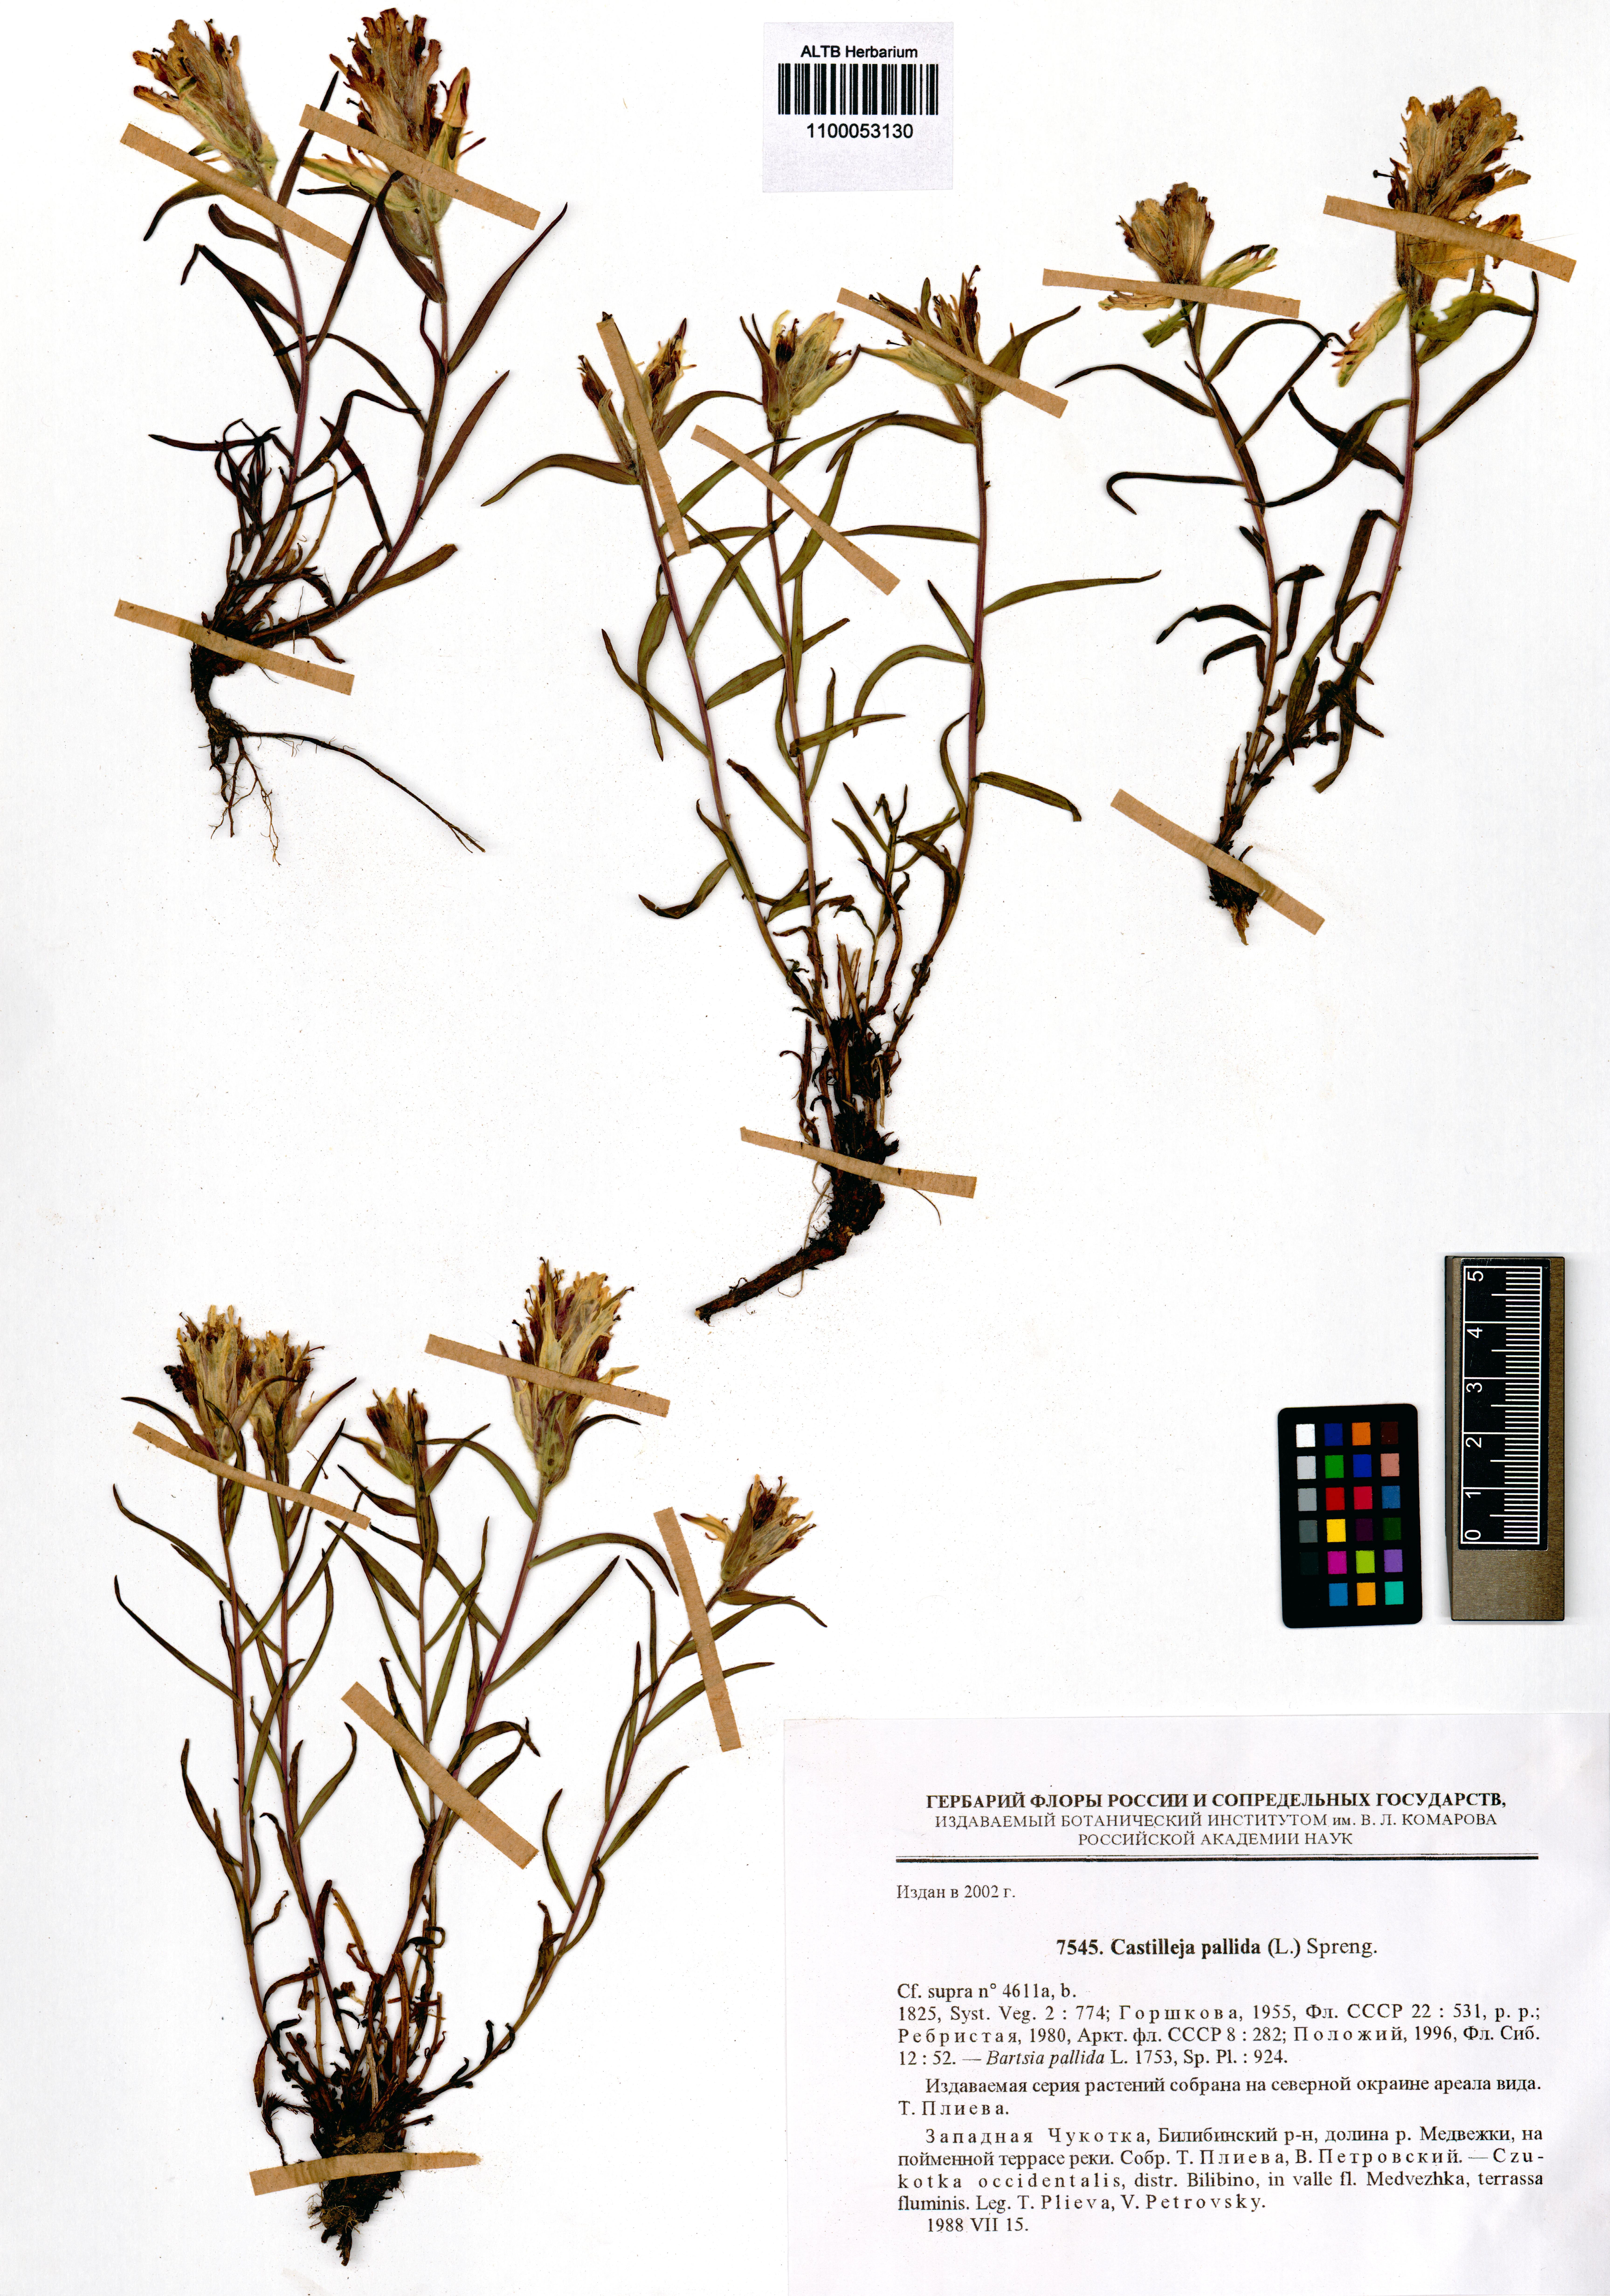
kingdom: Plantae
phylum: Tracheophyta
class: Magnoliopsida
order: Lamiales
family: Orobanchaceae
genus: Castilleja
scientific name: Castilleja pallida
